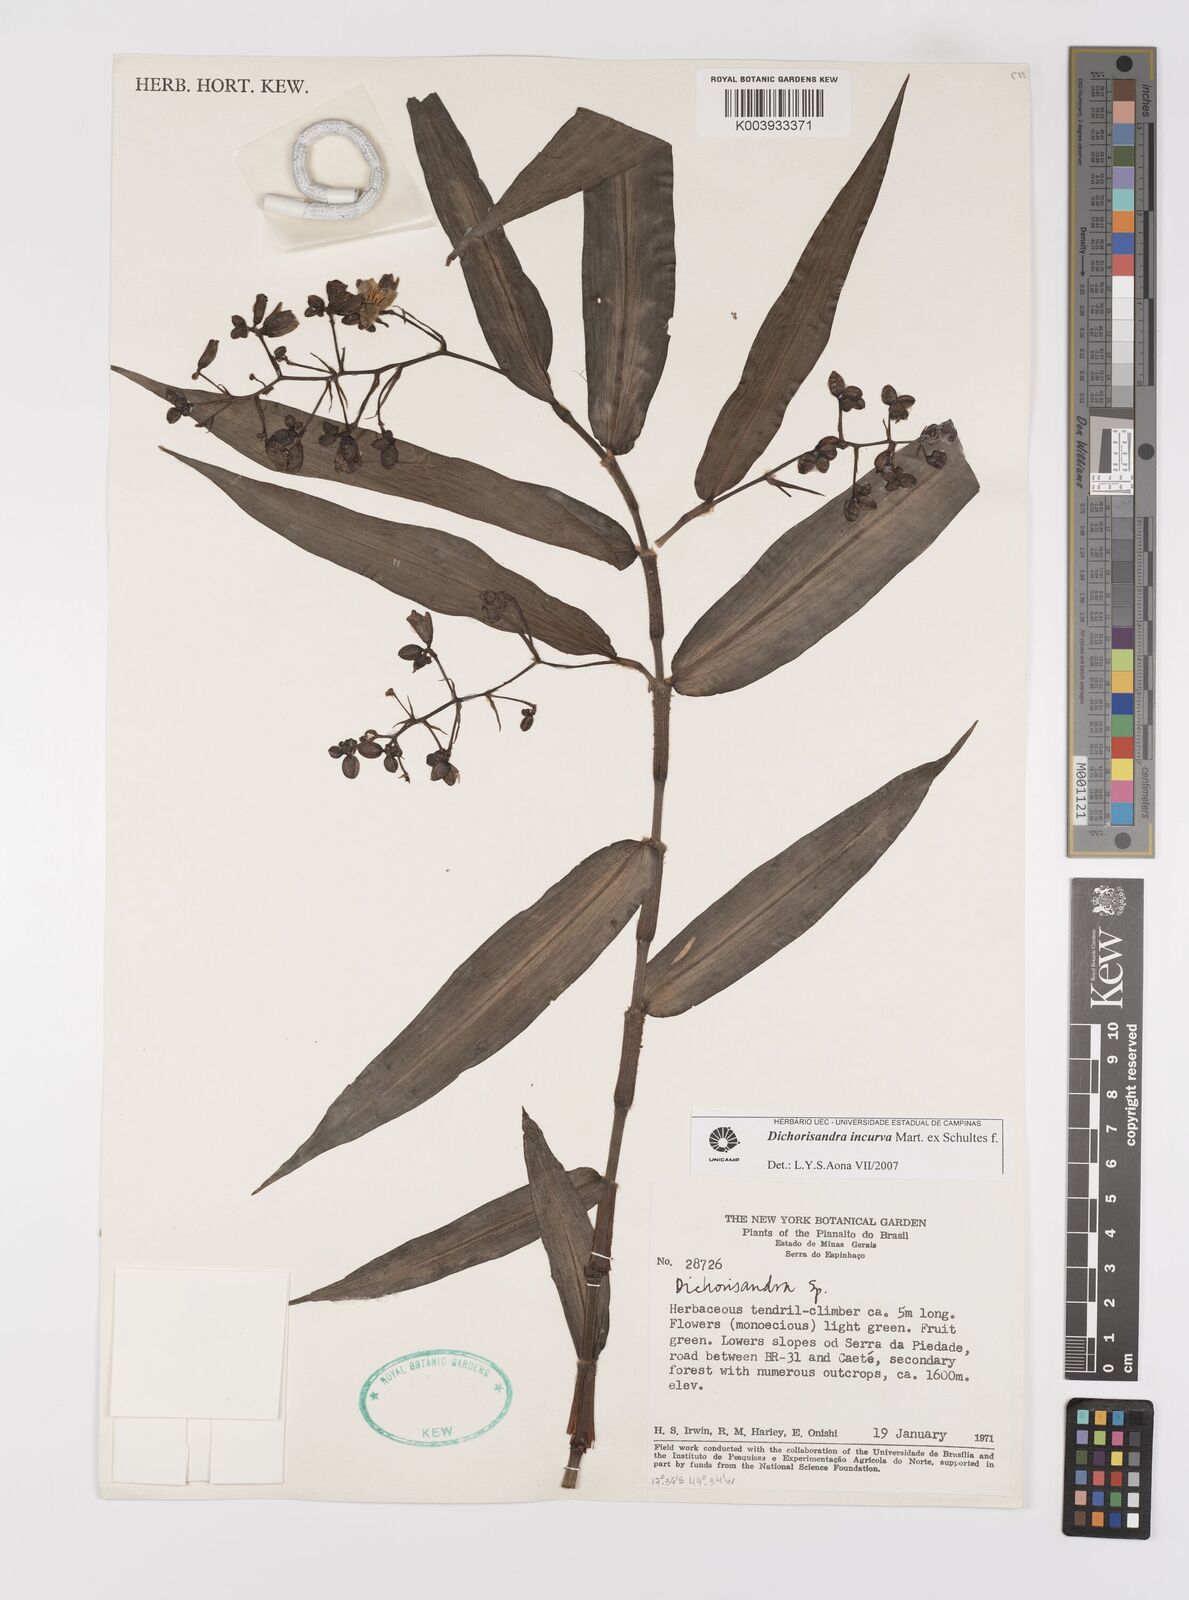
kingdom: Plantae
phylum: Tracheophyta
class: Liliopsida
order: Commelinales
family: Commelinaceae
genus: Dichorisandra
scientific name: Dichorisandra incurva
